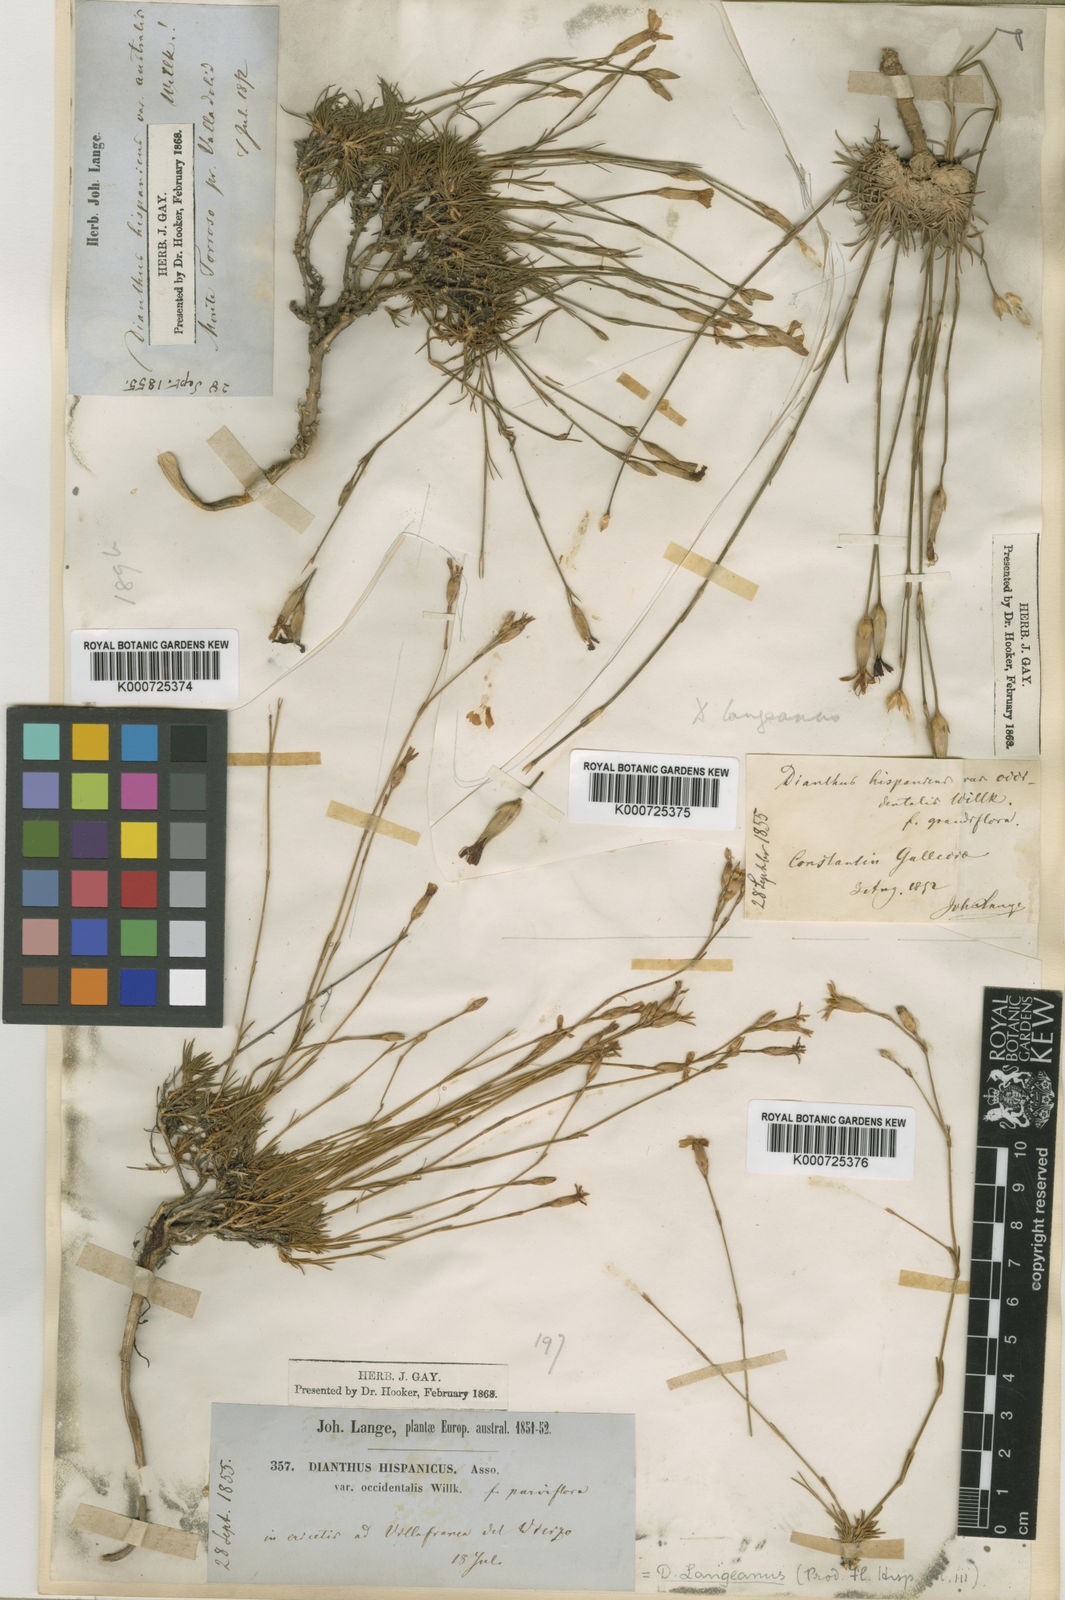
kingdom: Plantae
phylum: Tracheophyta
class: Magnoliopsida
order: Caryophyllales
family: Caryophyllaceae
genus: Dianthus
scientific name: Dianthus langeanus
